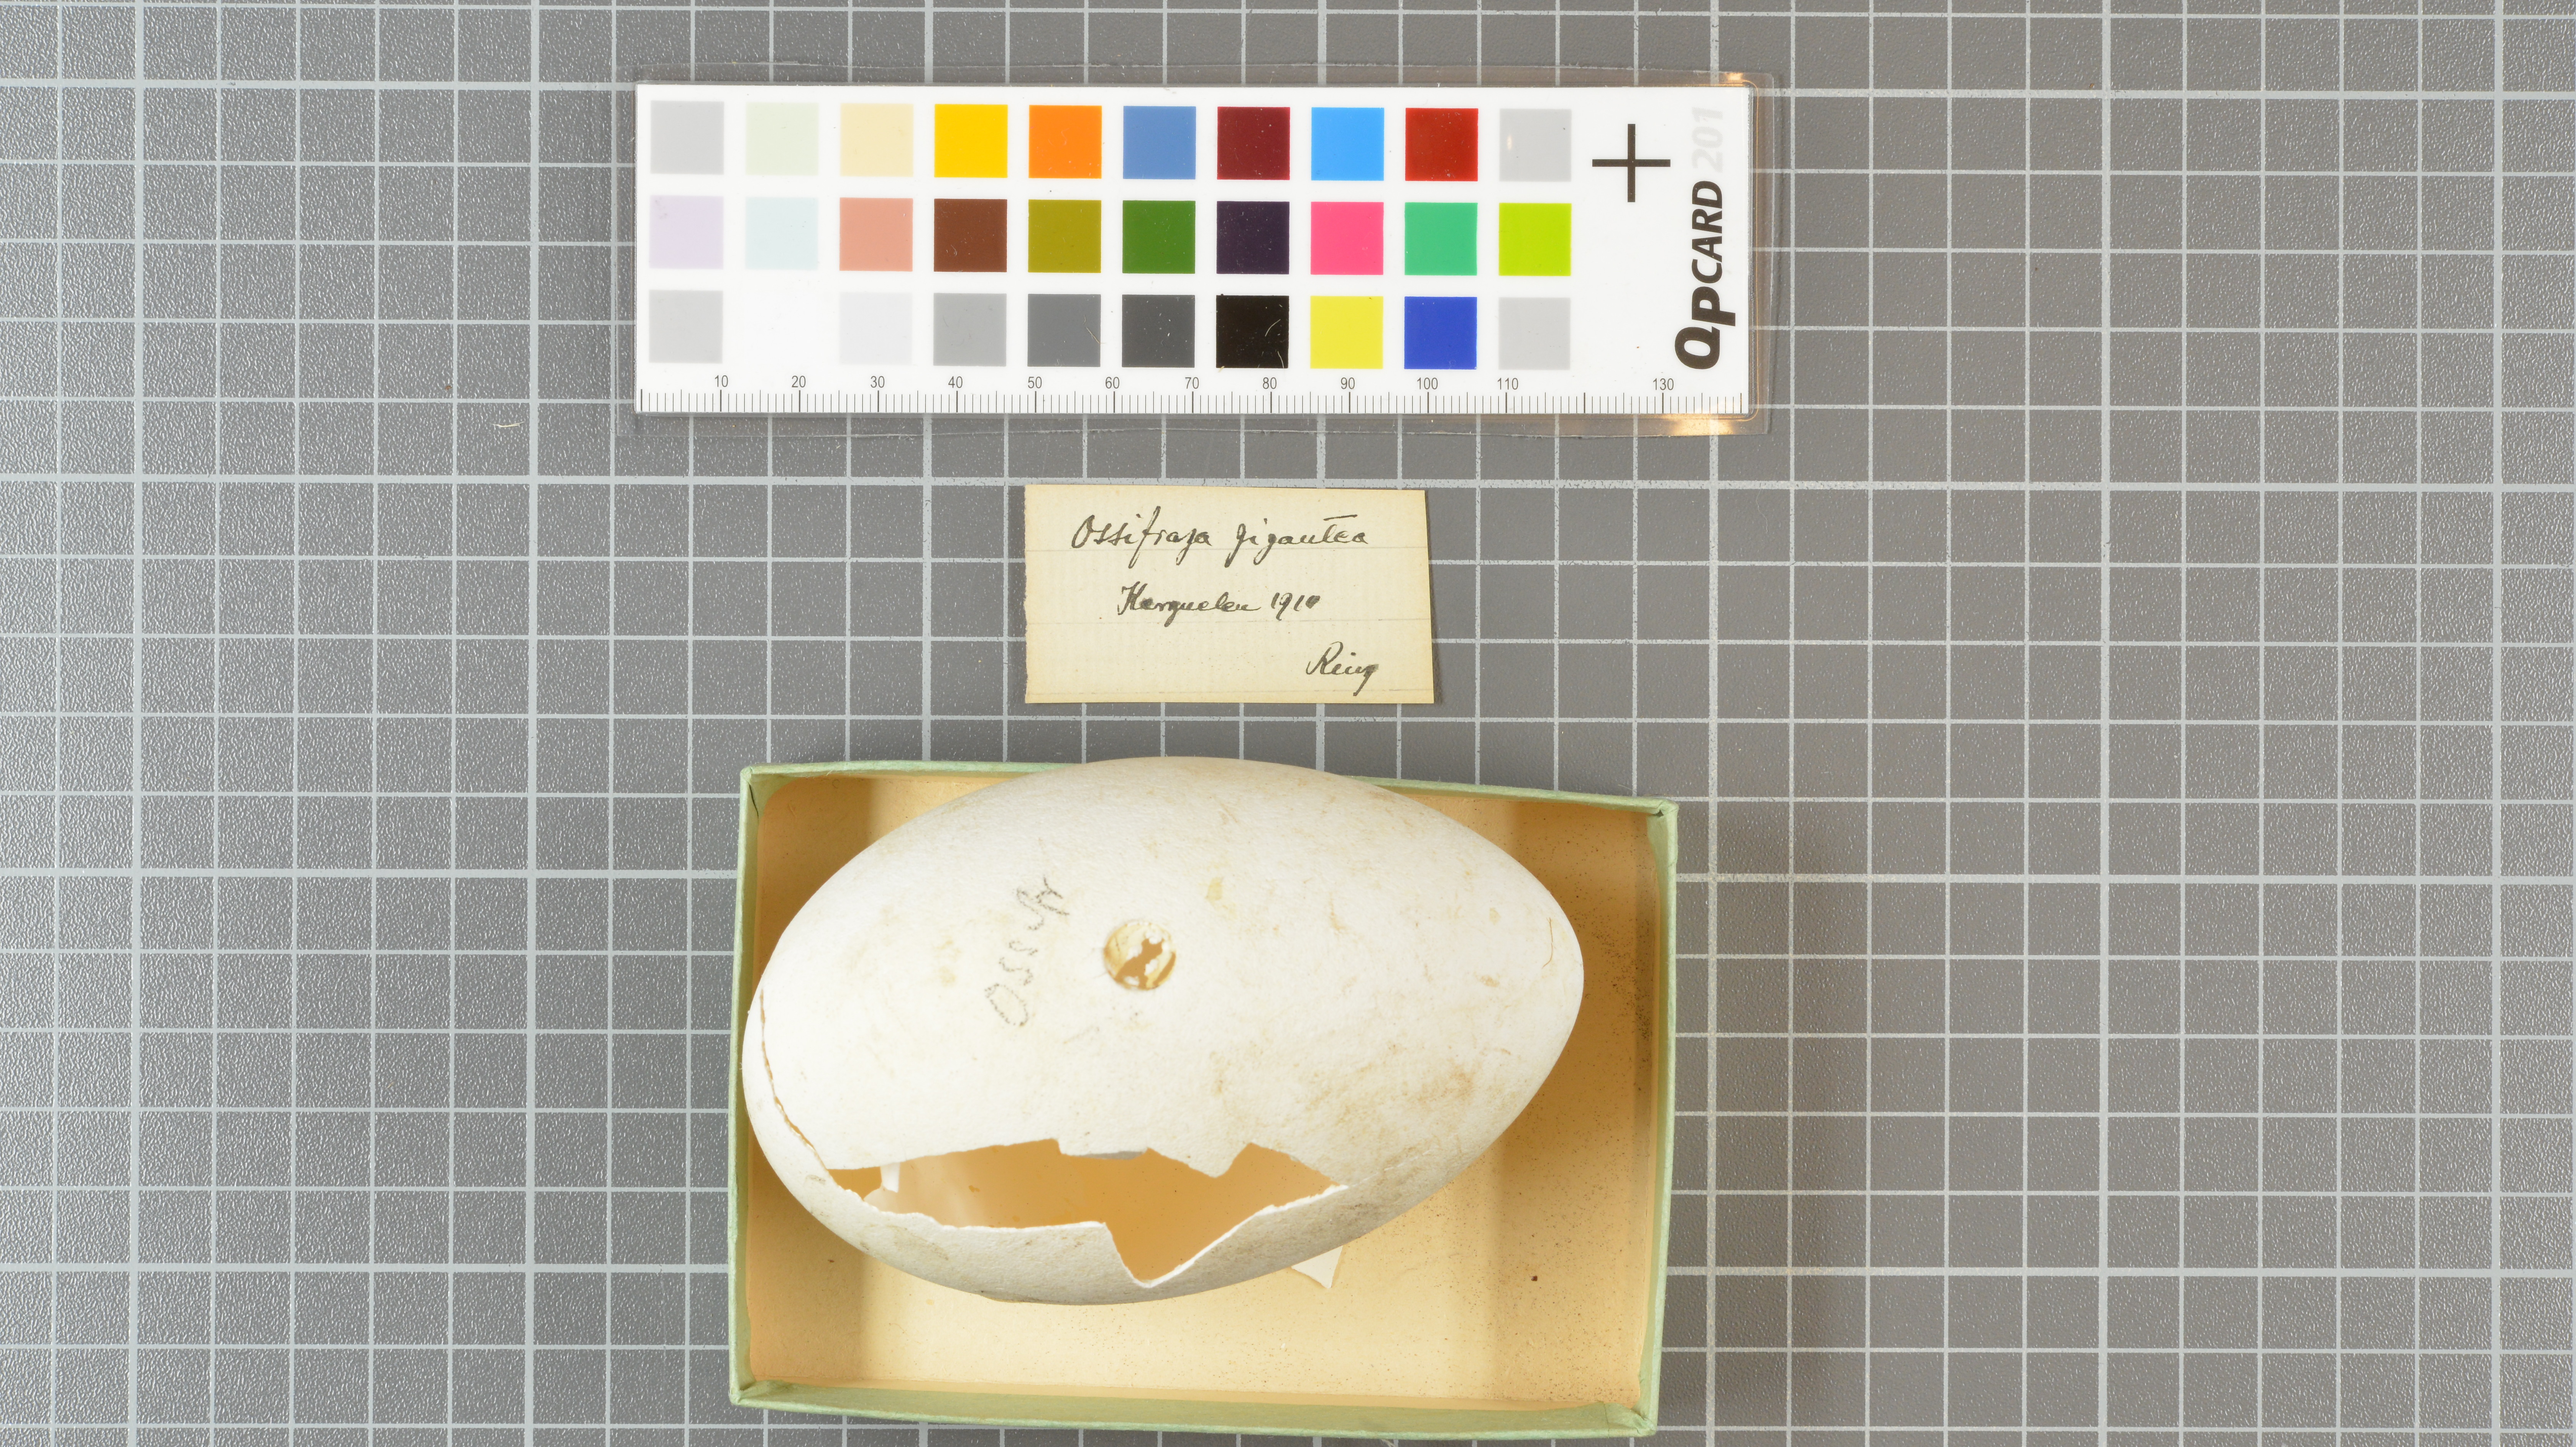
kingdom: Animalia
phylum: Chordata
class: Aves
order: Procellariiformes
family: Procellariidae
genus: Macronectes
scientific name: Macronectes giganteus
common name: Southern giant petrel
